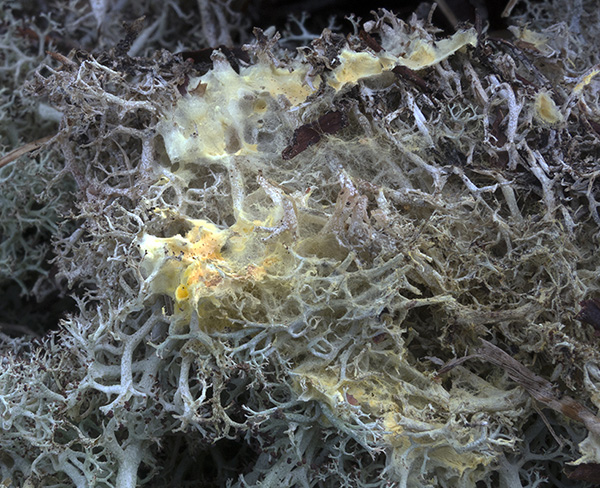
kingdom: Fungi
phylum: Basidiomycota
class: Agaricomycetes
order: Boletales
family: Coniophoraceae
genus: Penttilamyces
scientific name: Penttilamyces lichenicola
